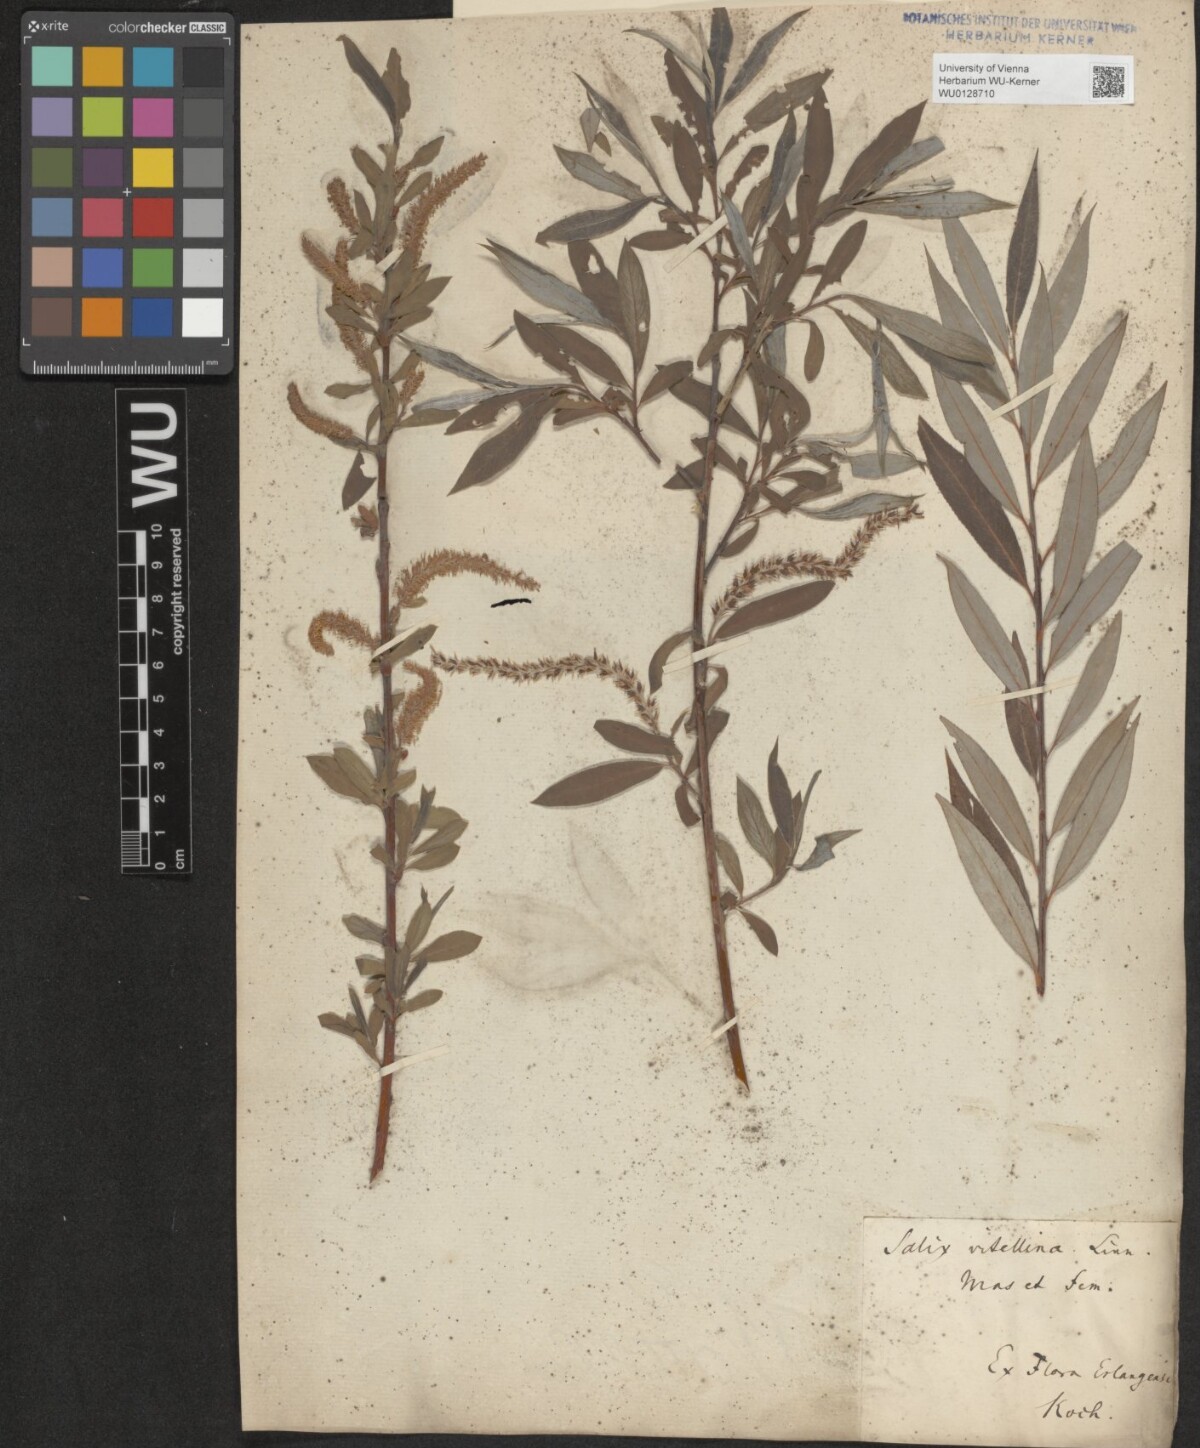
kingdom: Plantae
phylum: Tracheophyta
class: Magnoliopsida
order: Malpighiales
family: Salicaceae
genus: Salix
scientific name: Salix alba
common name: White willow
